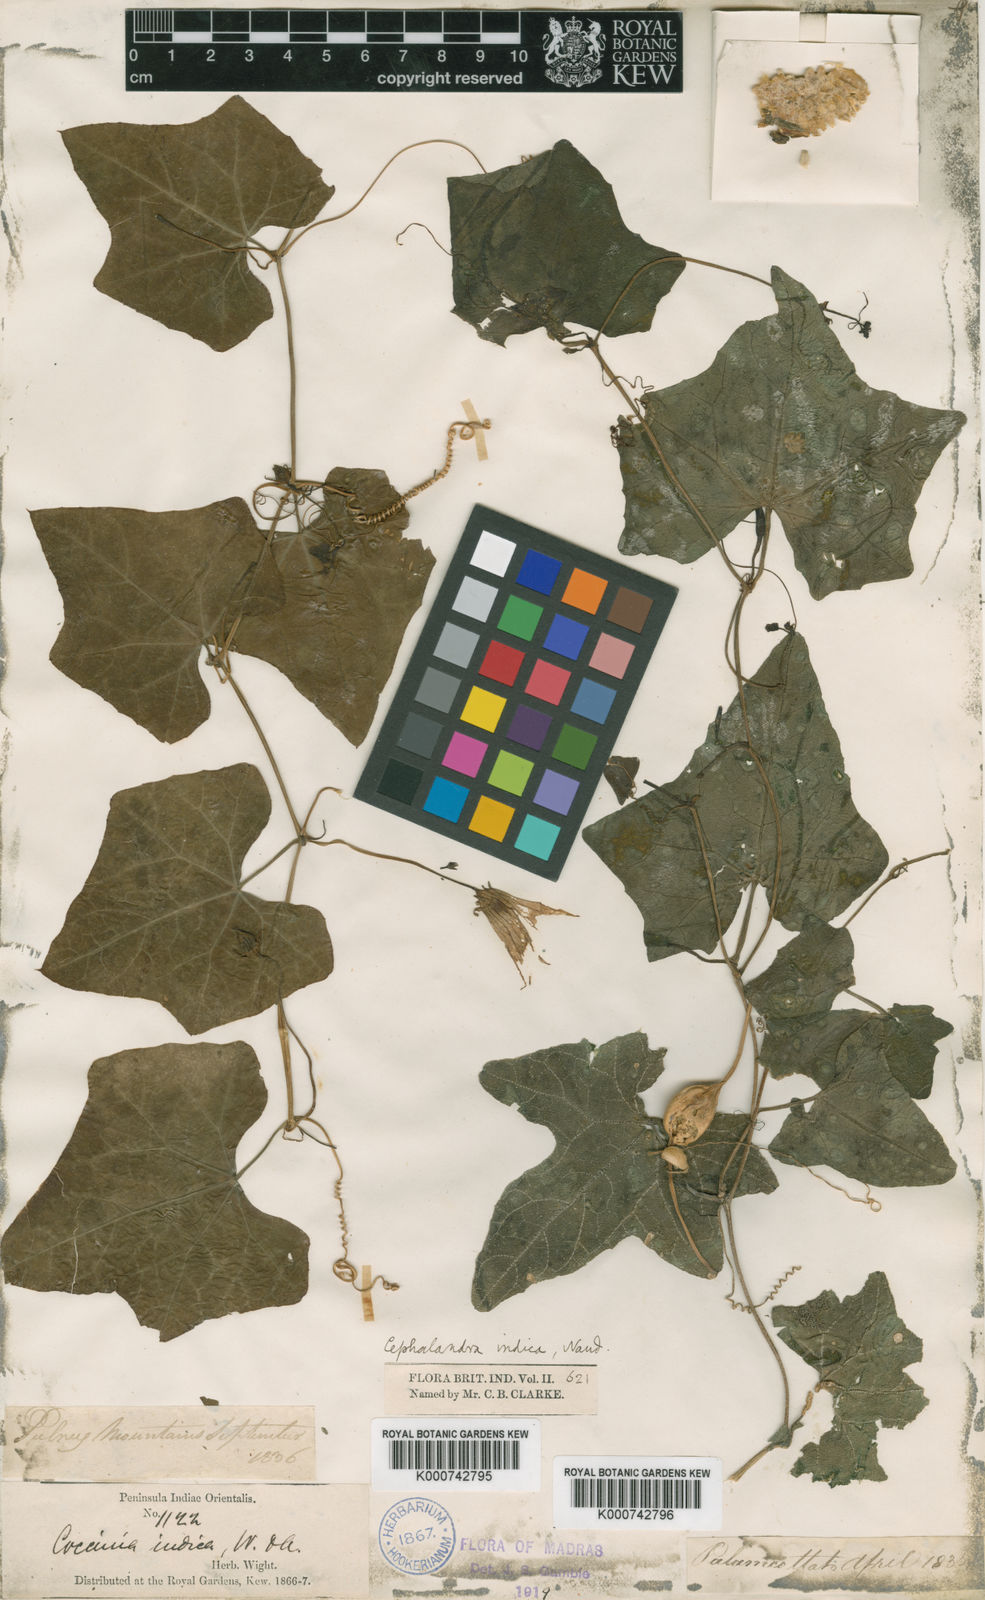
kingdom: Plantae
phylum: Tracheophyta
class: Magnoliopsida
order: Cucurbitales
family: Cucurbitaceae
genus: Coccinia
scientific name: Coccinia grandis
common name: Ivy gourd
